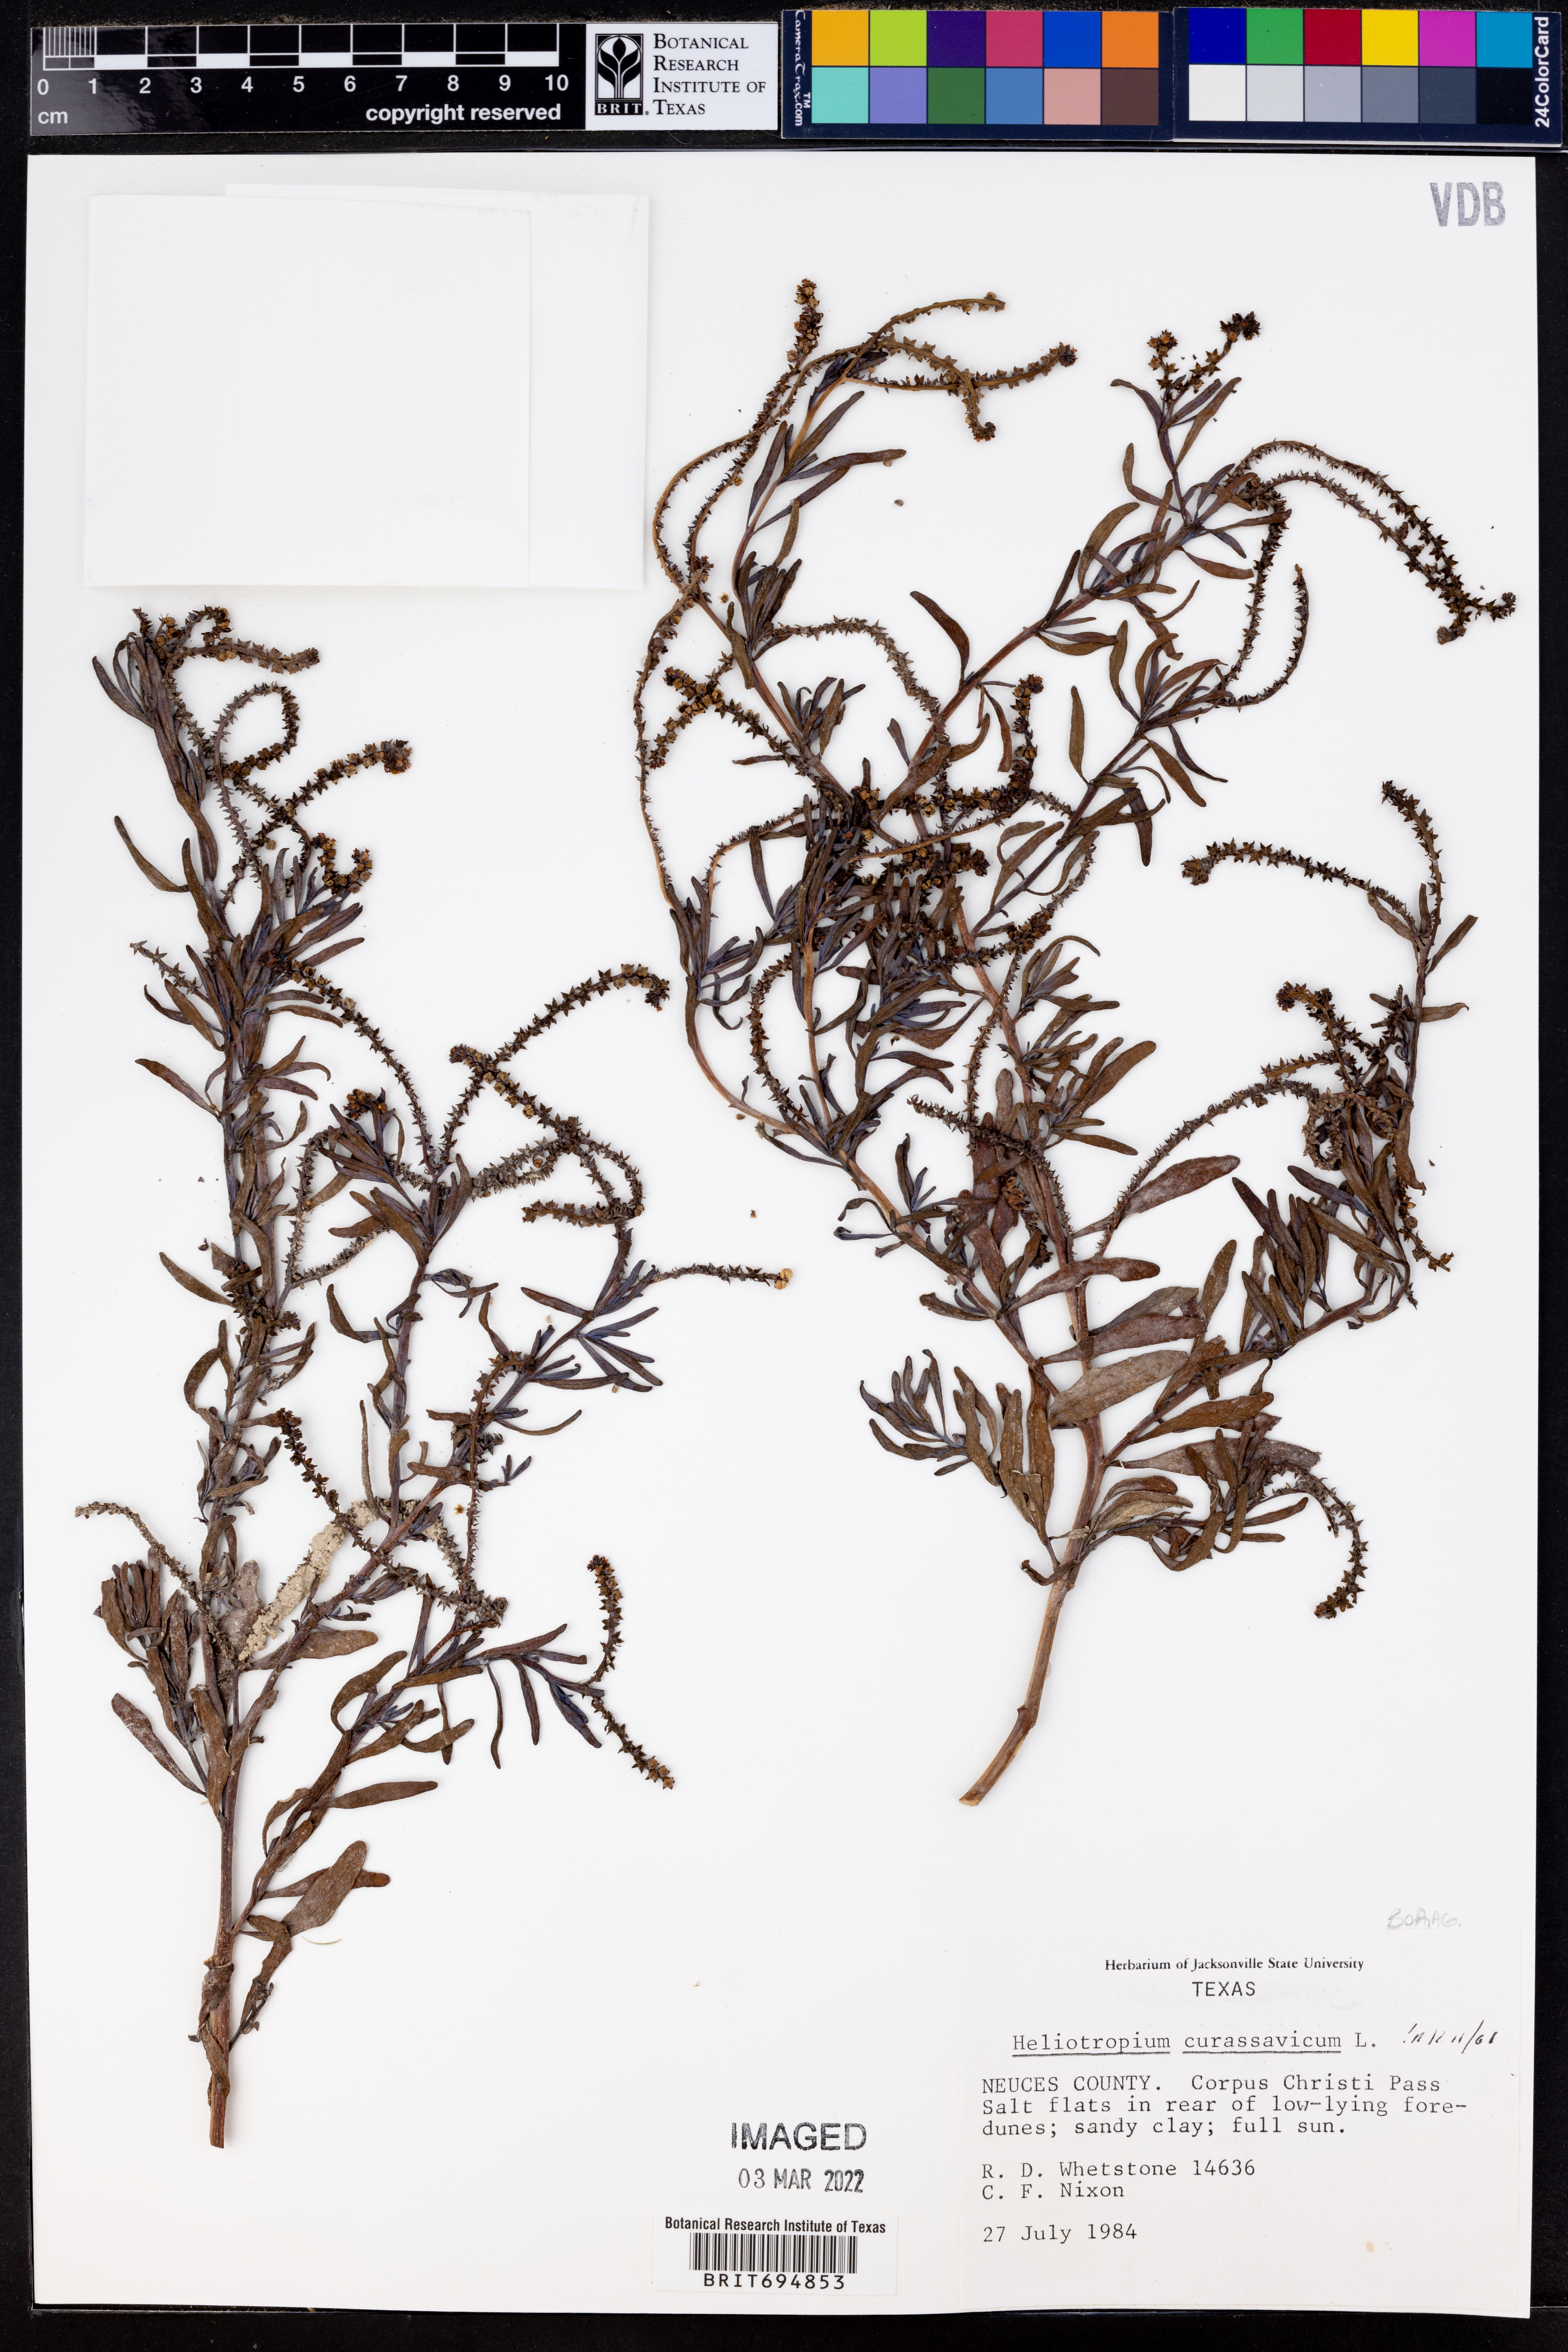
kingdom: Plantae
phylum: Tracheophyta
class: Magnoliopsida
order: Boraginales
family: Heliotropiaceae
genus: Heliotropium
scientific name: Heliotropium curassavicum
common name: Seaside heliotrope
